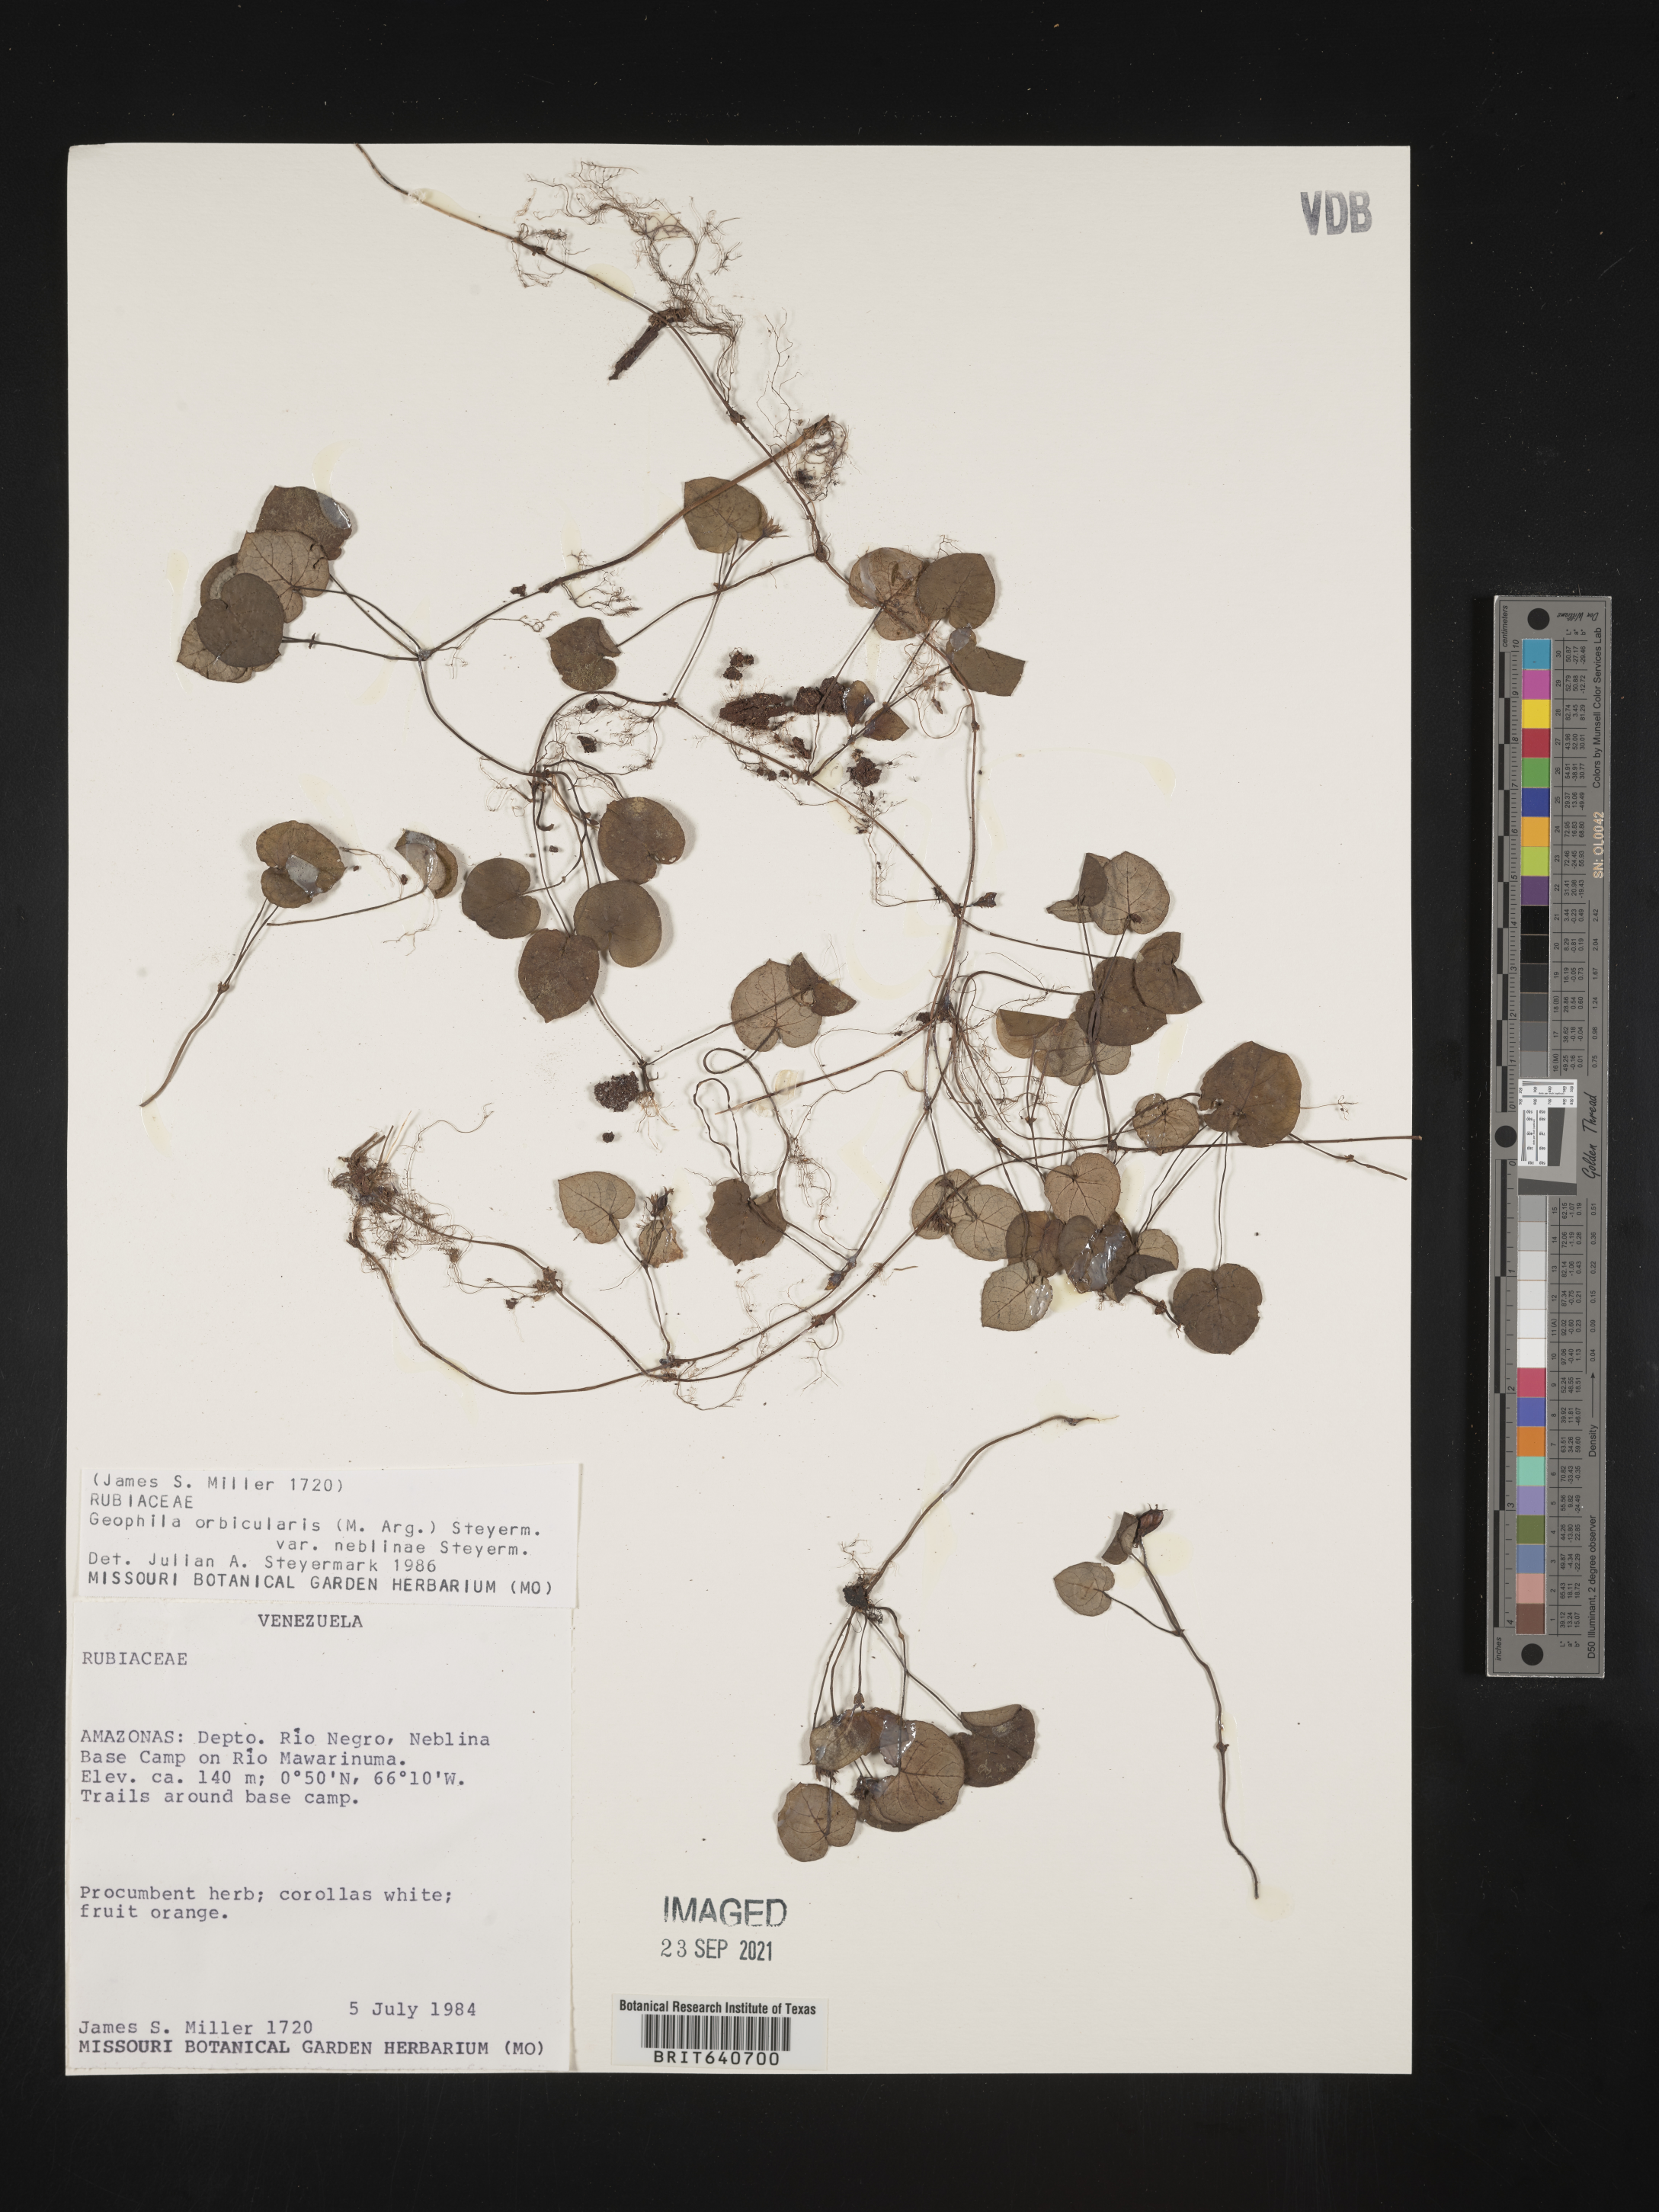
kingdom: Plantae
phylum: Tracheophyta
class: Magnoliopsida
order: Gentianales
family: Rubiaceae
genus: Geophila
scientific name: Geophila
